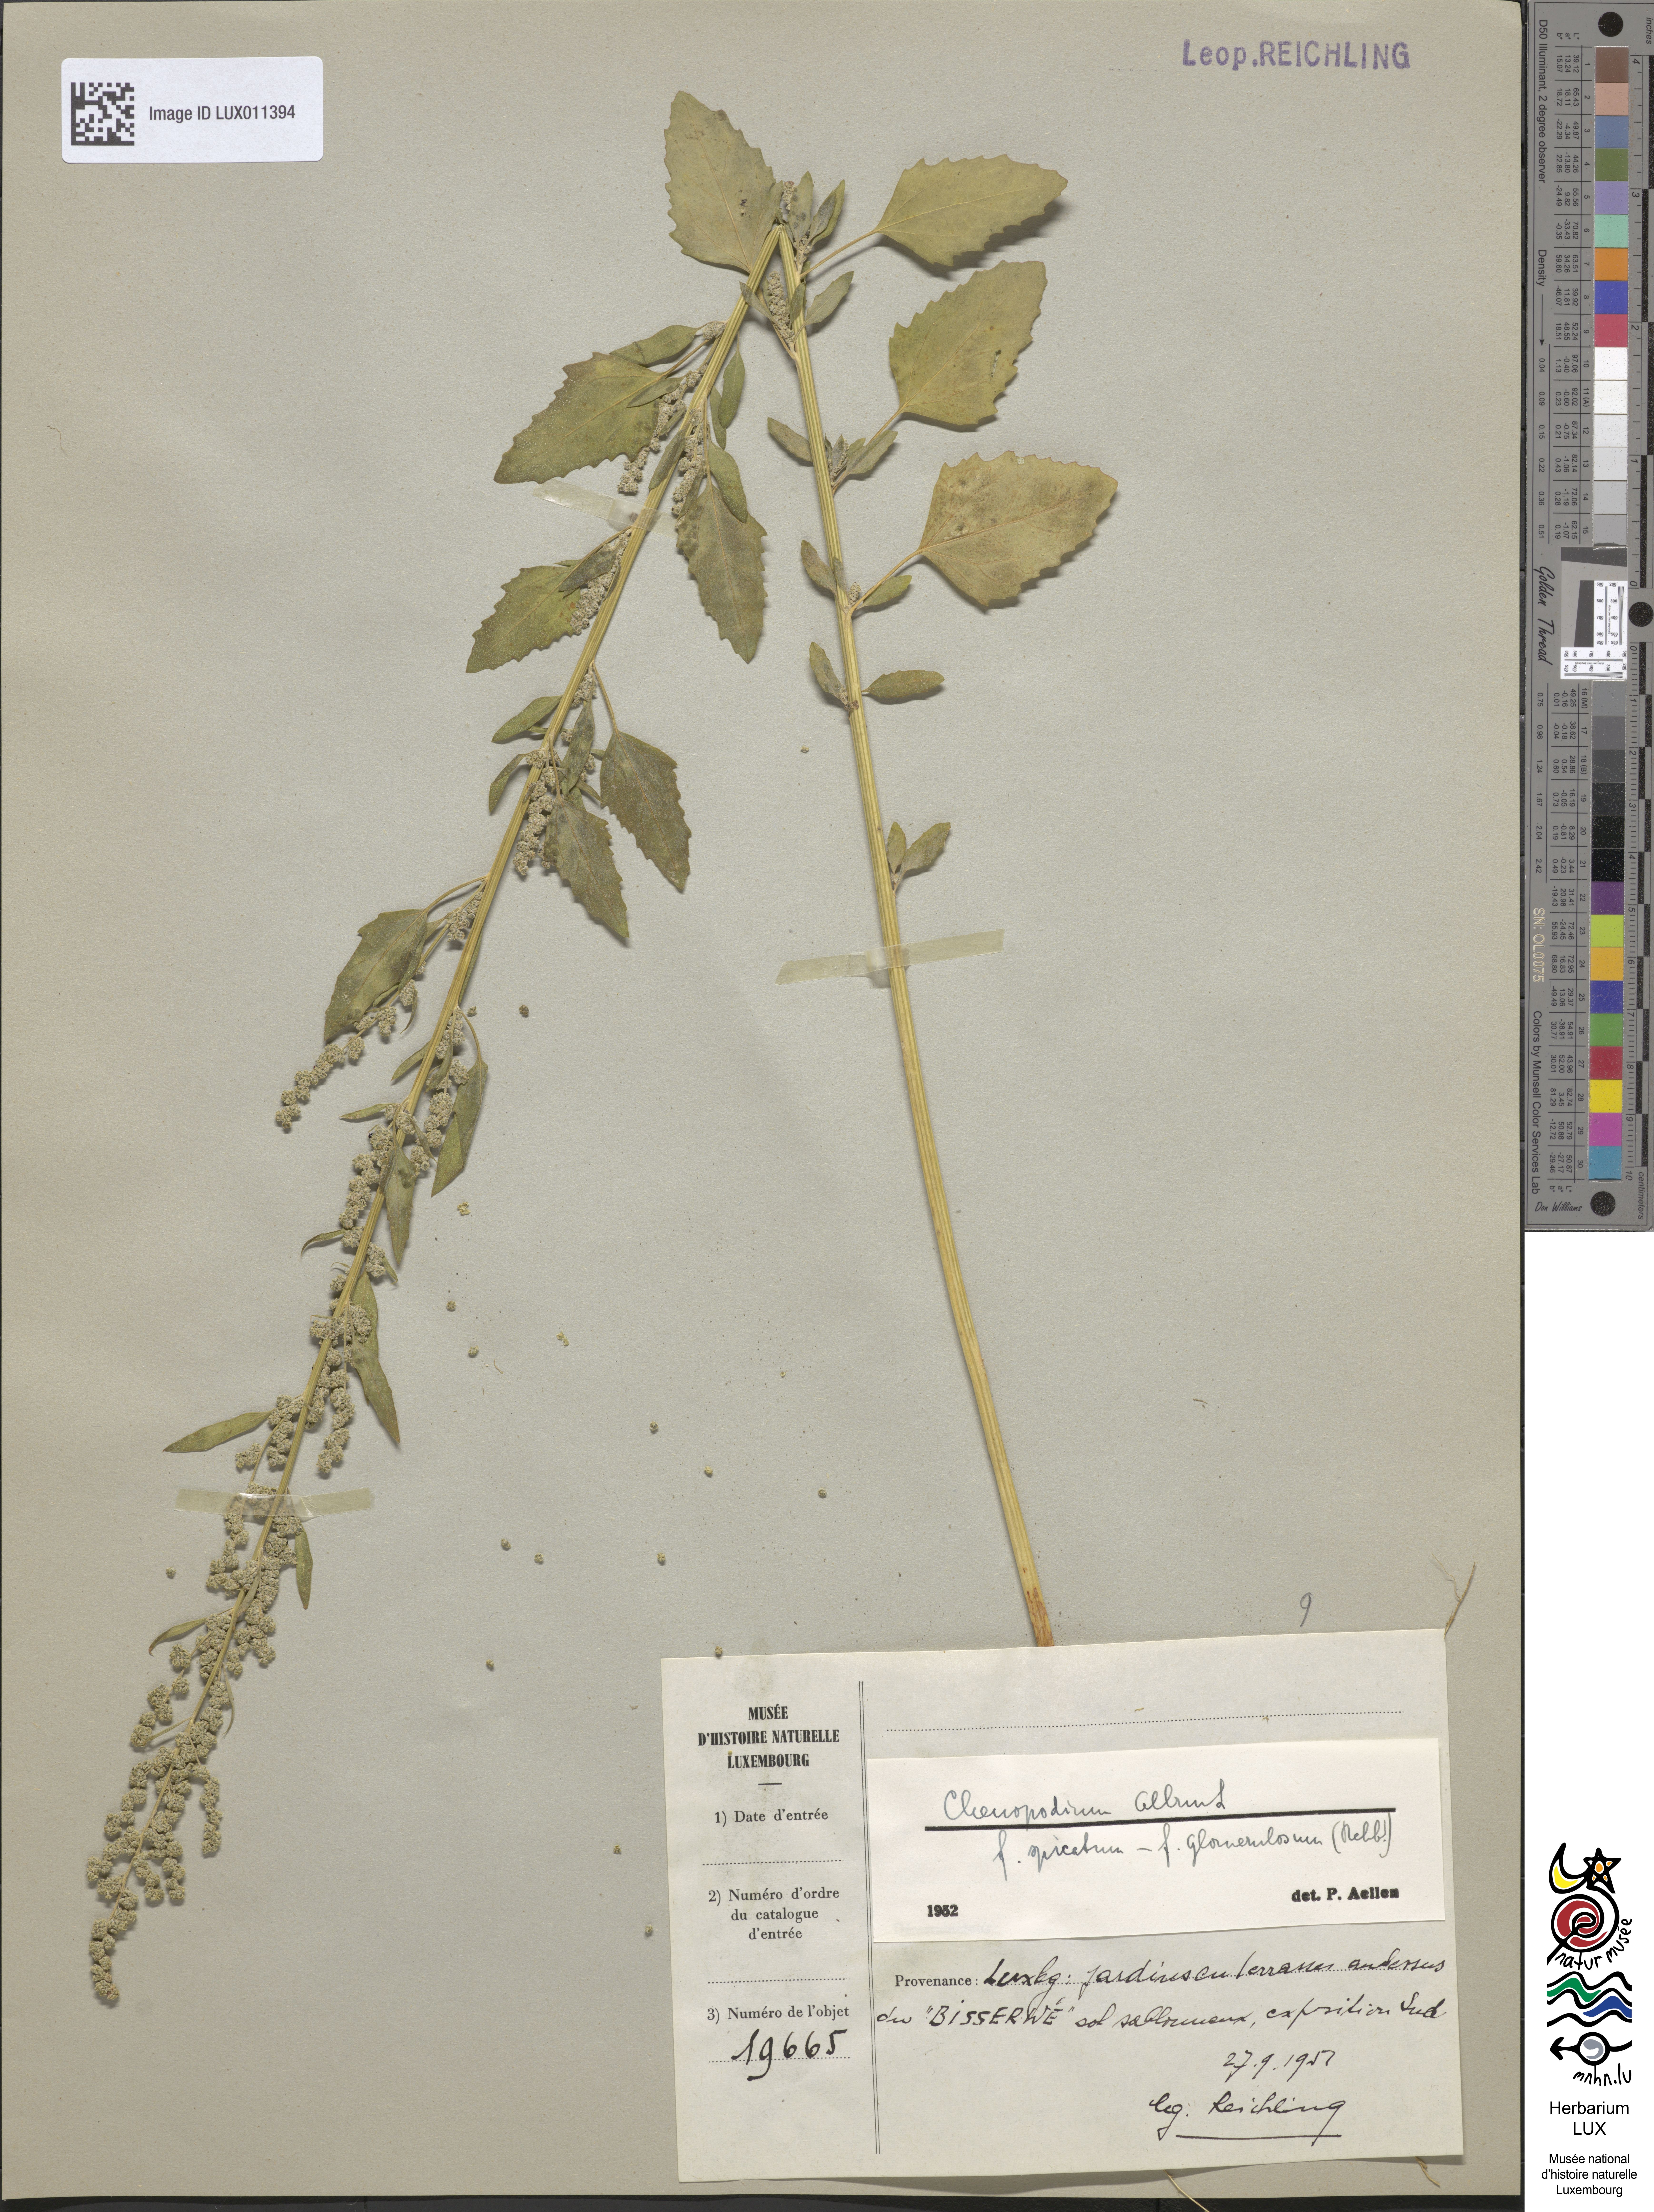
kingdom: Plantae
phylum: Tracheophyta
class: Magnoliopsida
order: Caryophyllales
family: Amaranthaceae
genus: Chenopodium
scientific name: Chenopodium album
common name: Fat-hen
